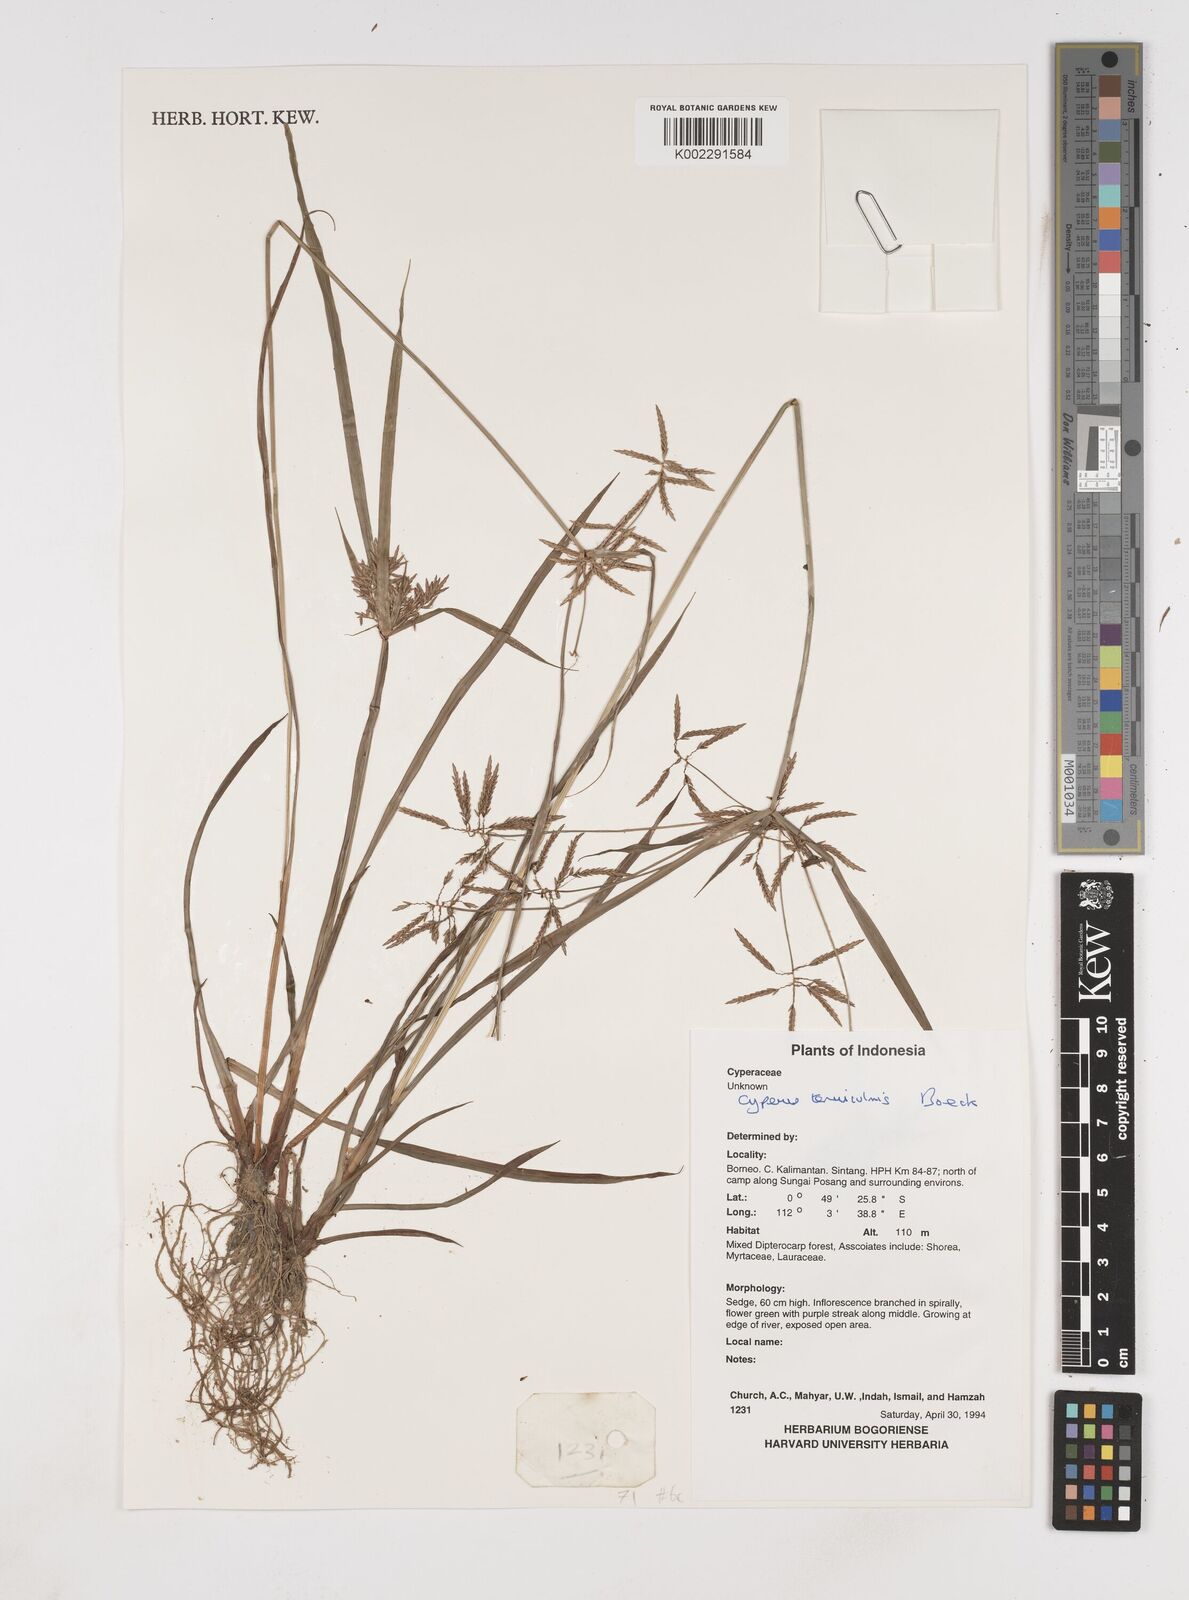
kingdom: Plantae
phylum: Tracheophyta
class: Liliopsida
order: Poales
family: Cyperaceae
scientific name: Cyperaceae
